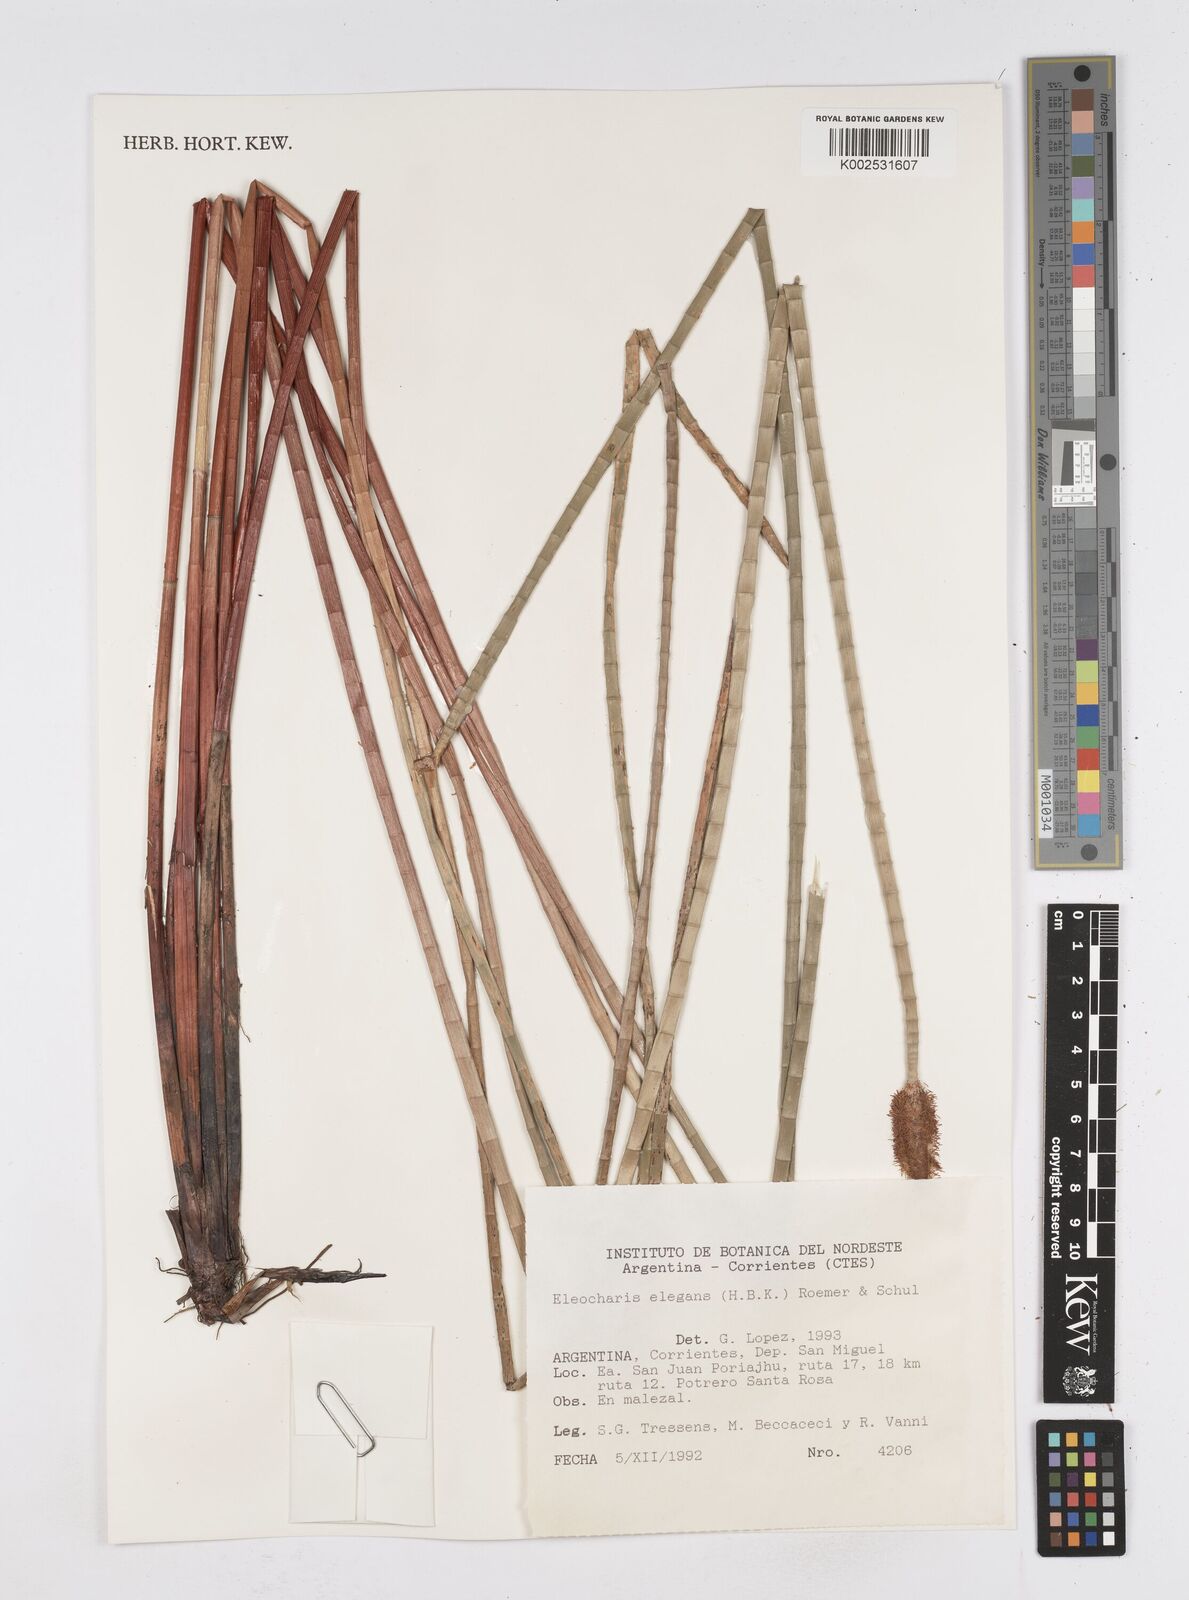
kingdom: Plantae
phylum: Tracheophyta
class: Liliopsida
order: Poales
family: Cyperaceae
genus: Eleocharis
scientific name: Eleocharis elegans
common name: Elegant spike-rush
